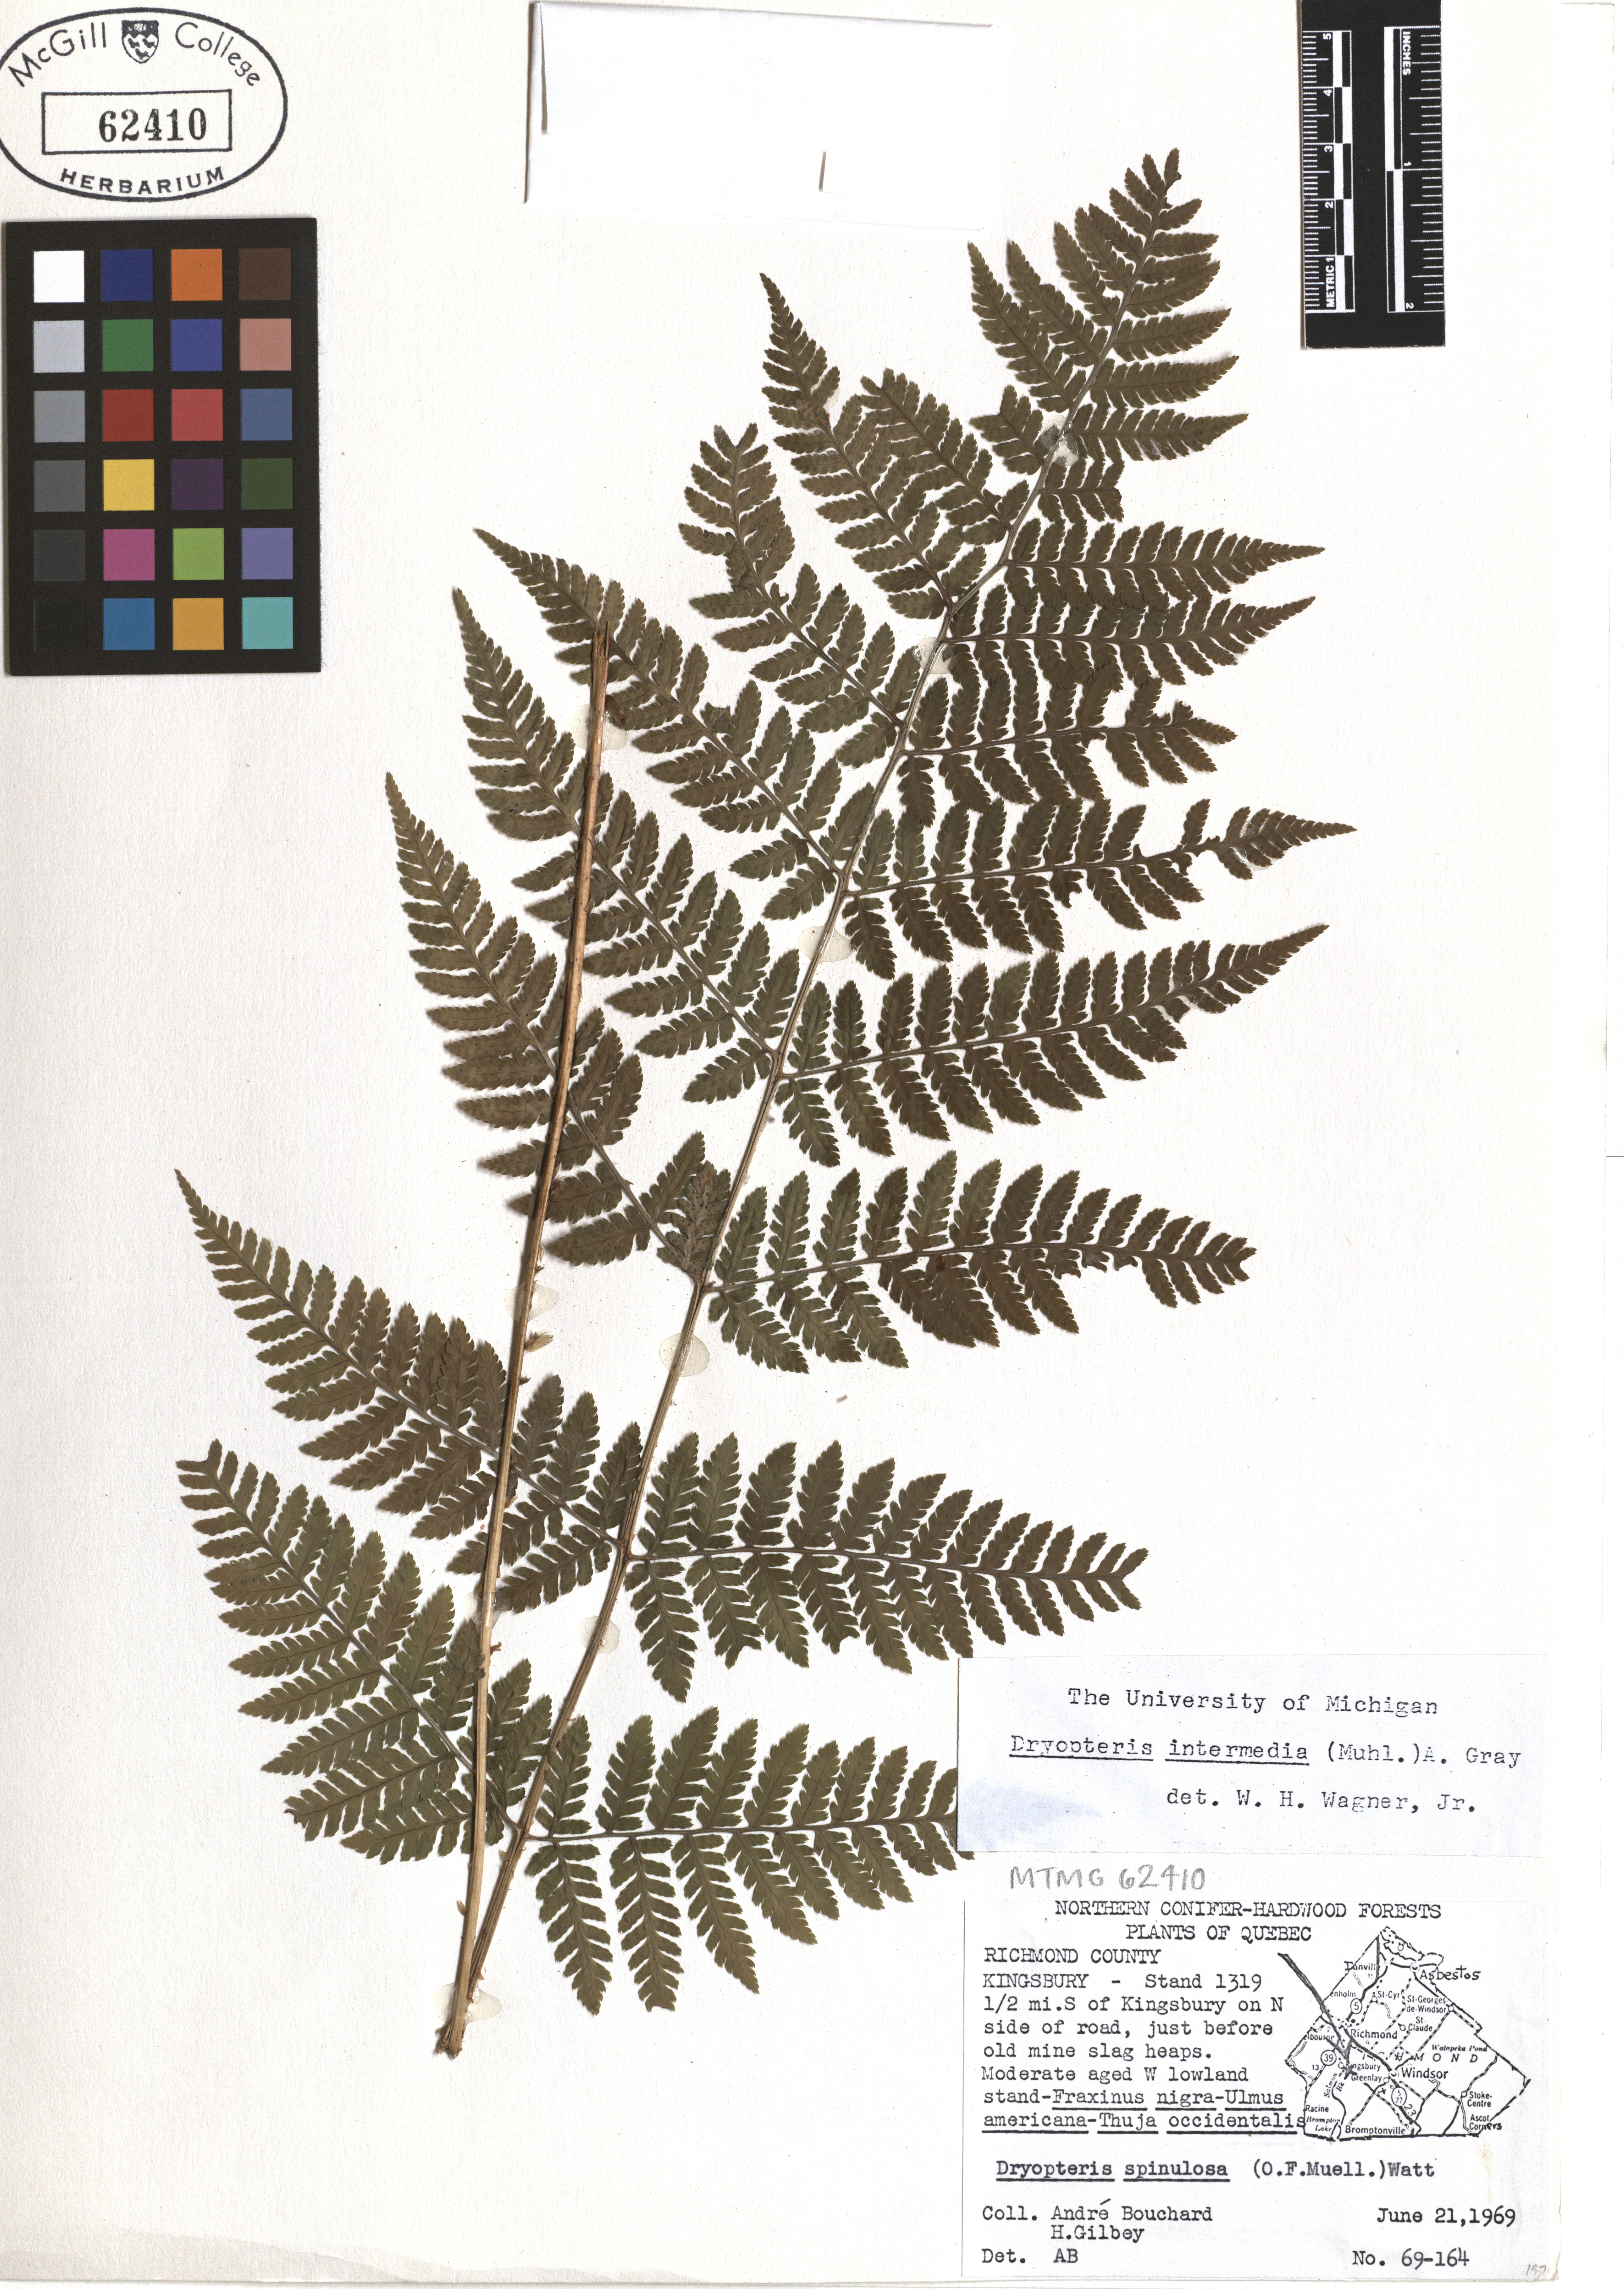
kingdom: Plantae
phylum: Tracheophyta
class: Polypodiopsida
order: Polypodiales
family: Dryopteridaceae
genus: Dryopteris
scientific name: Dryopteris intermedia
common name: Evergreen wood fern
